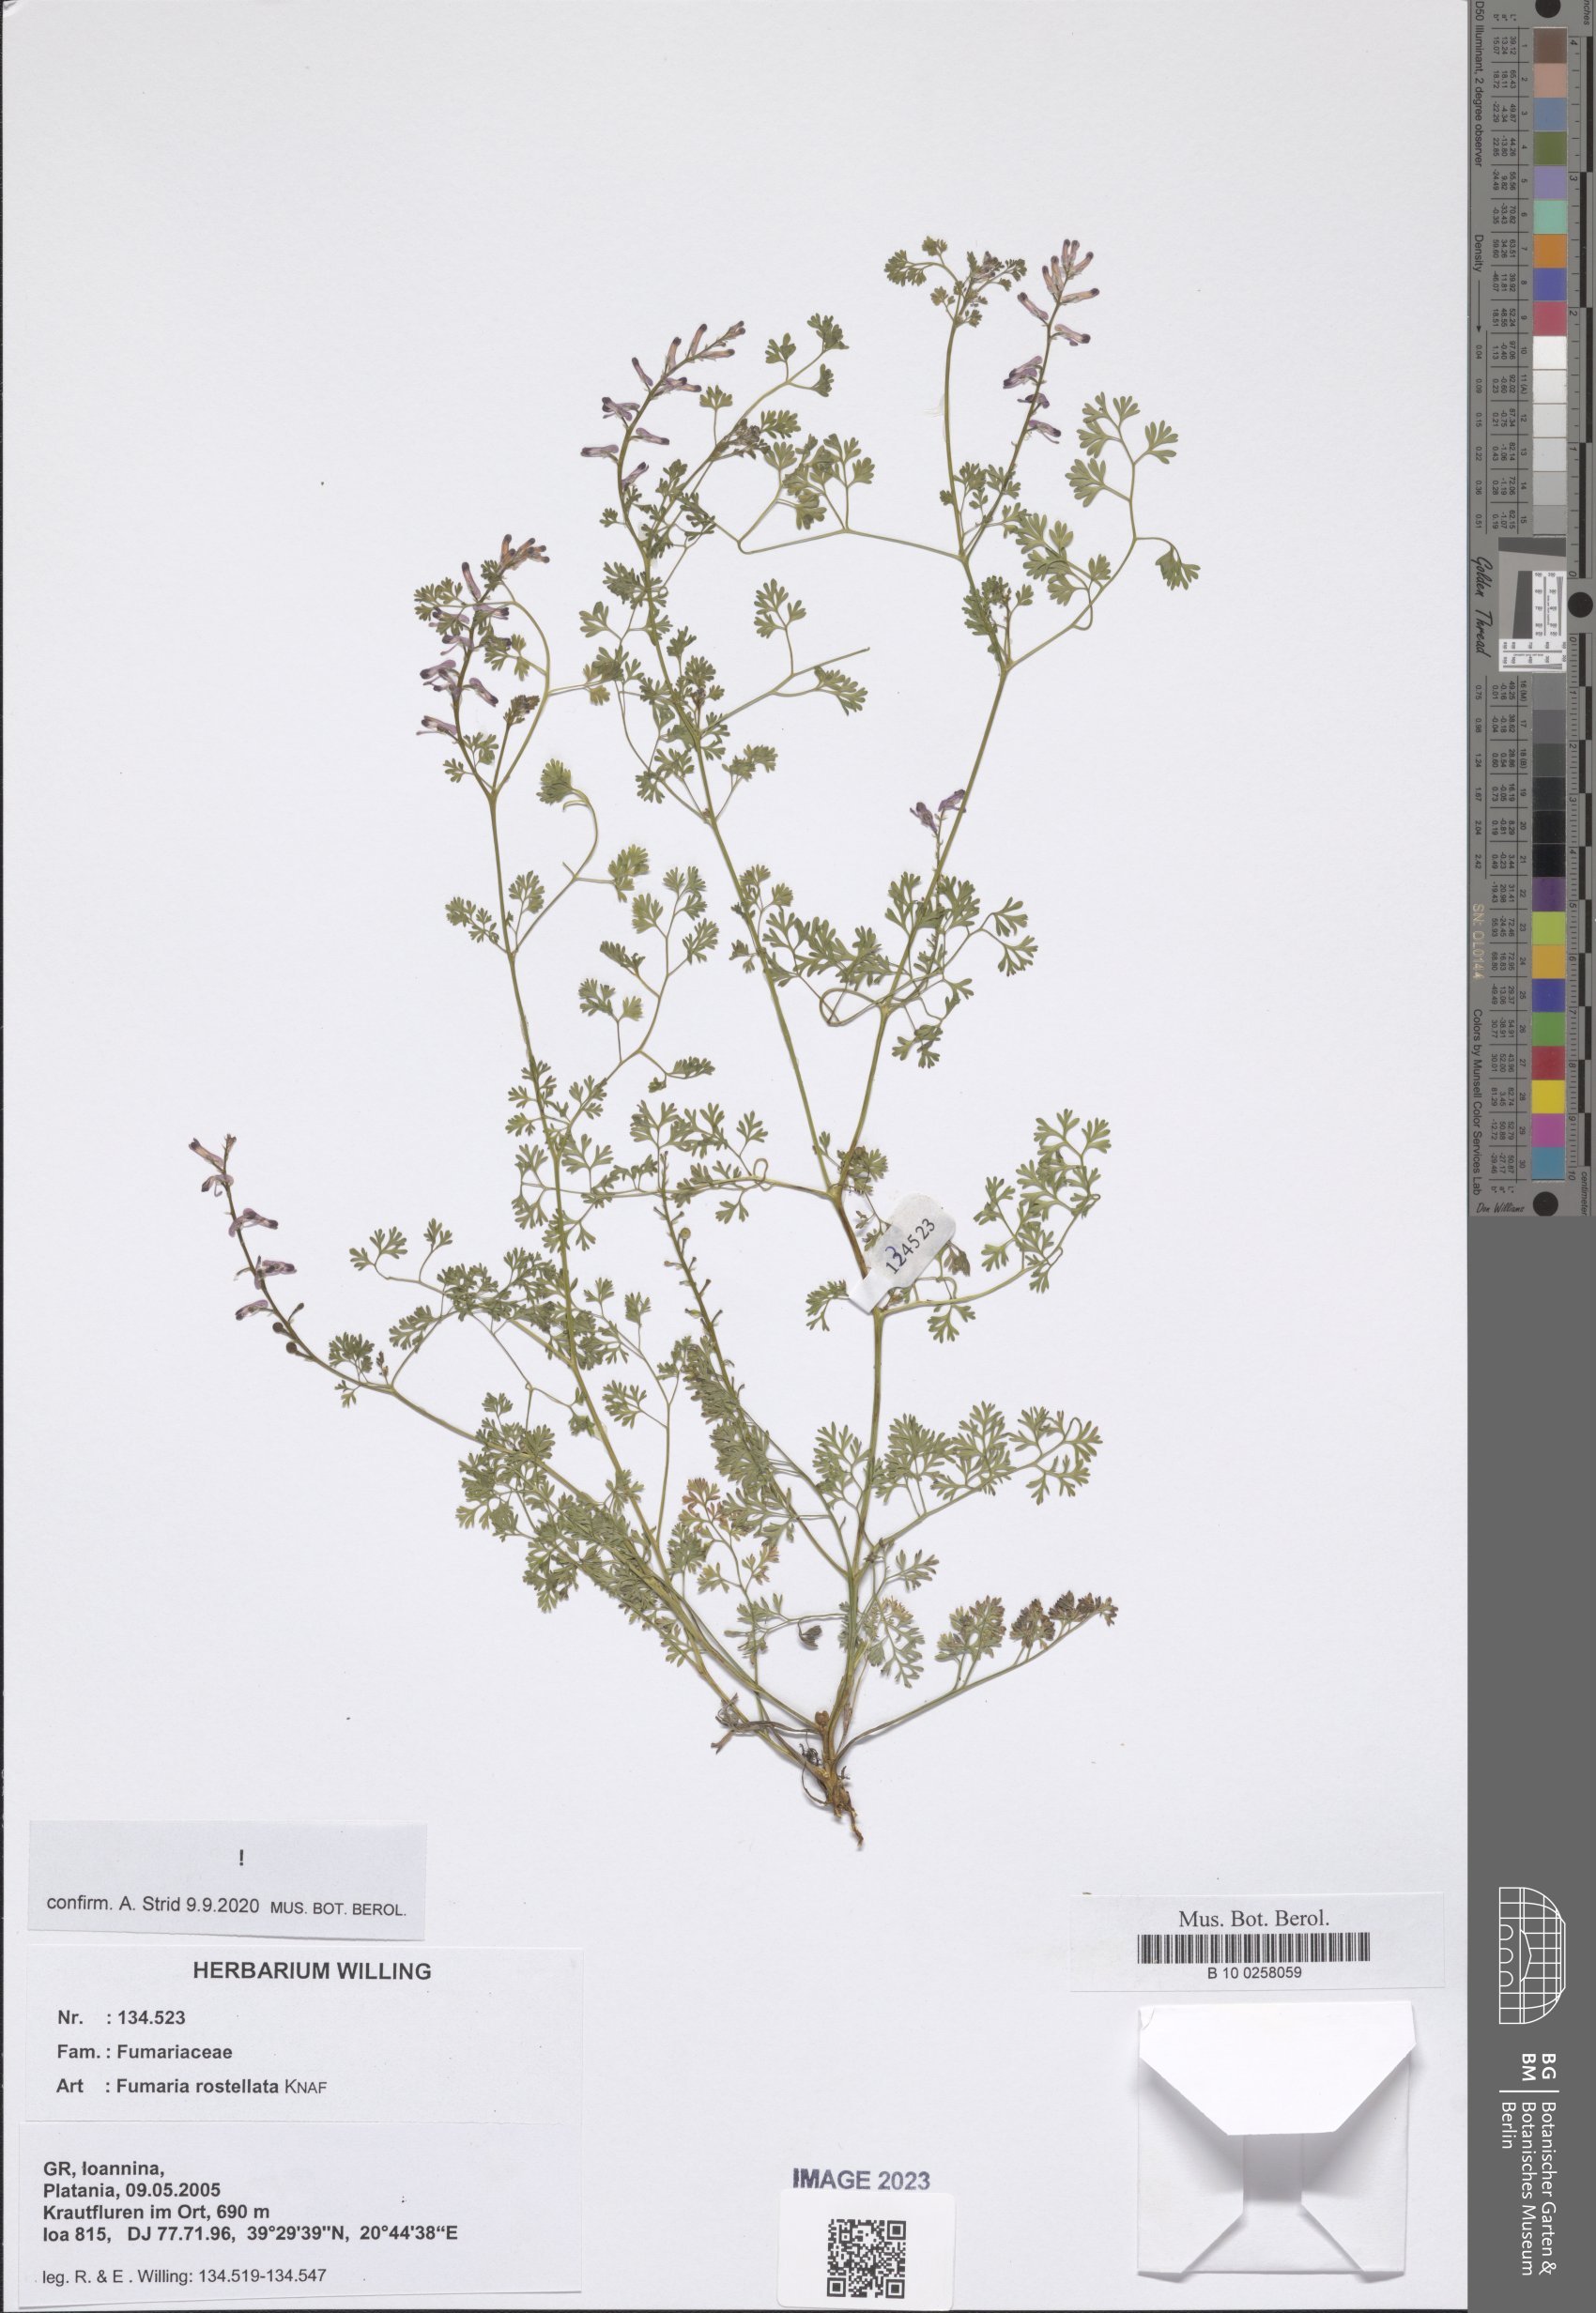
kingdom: Plantae
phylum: Tracheophyta
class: Magnoliopsida
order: Ranunculales
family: Papaveraceae
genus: Fumaria
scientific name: Fumaria rostellata
